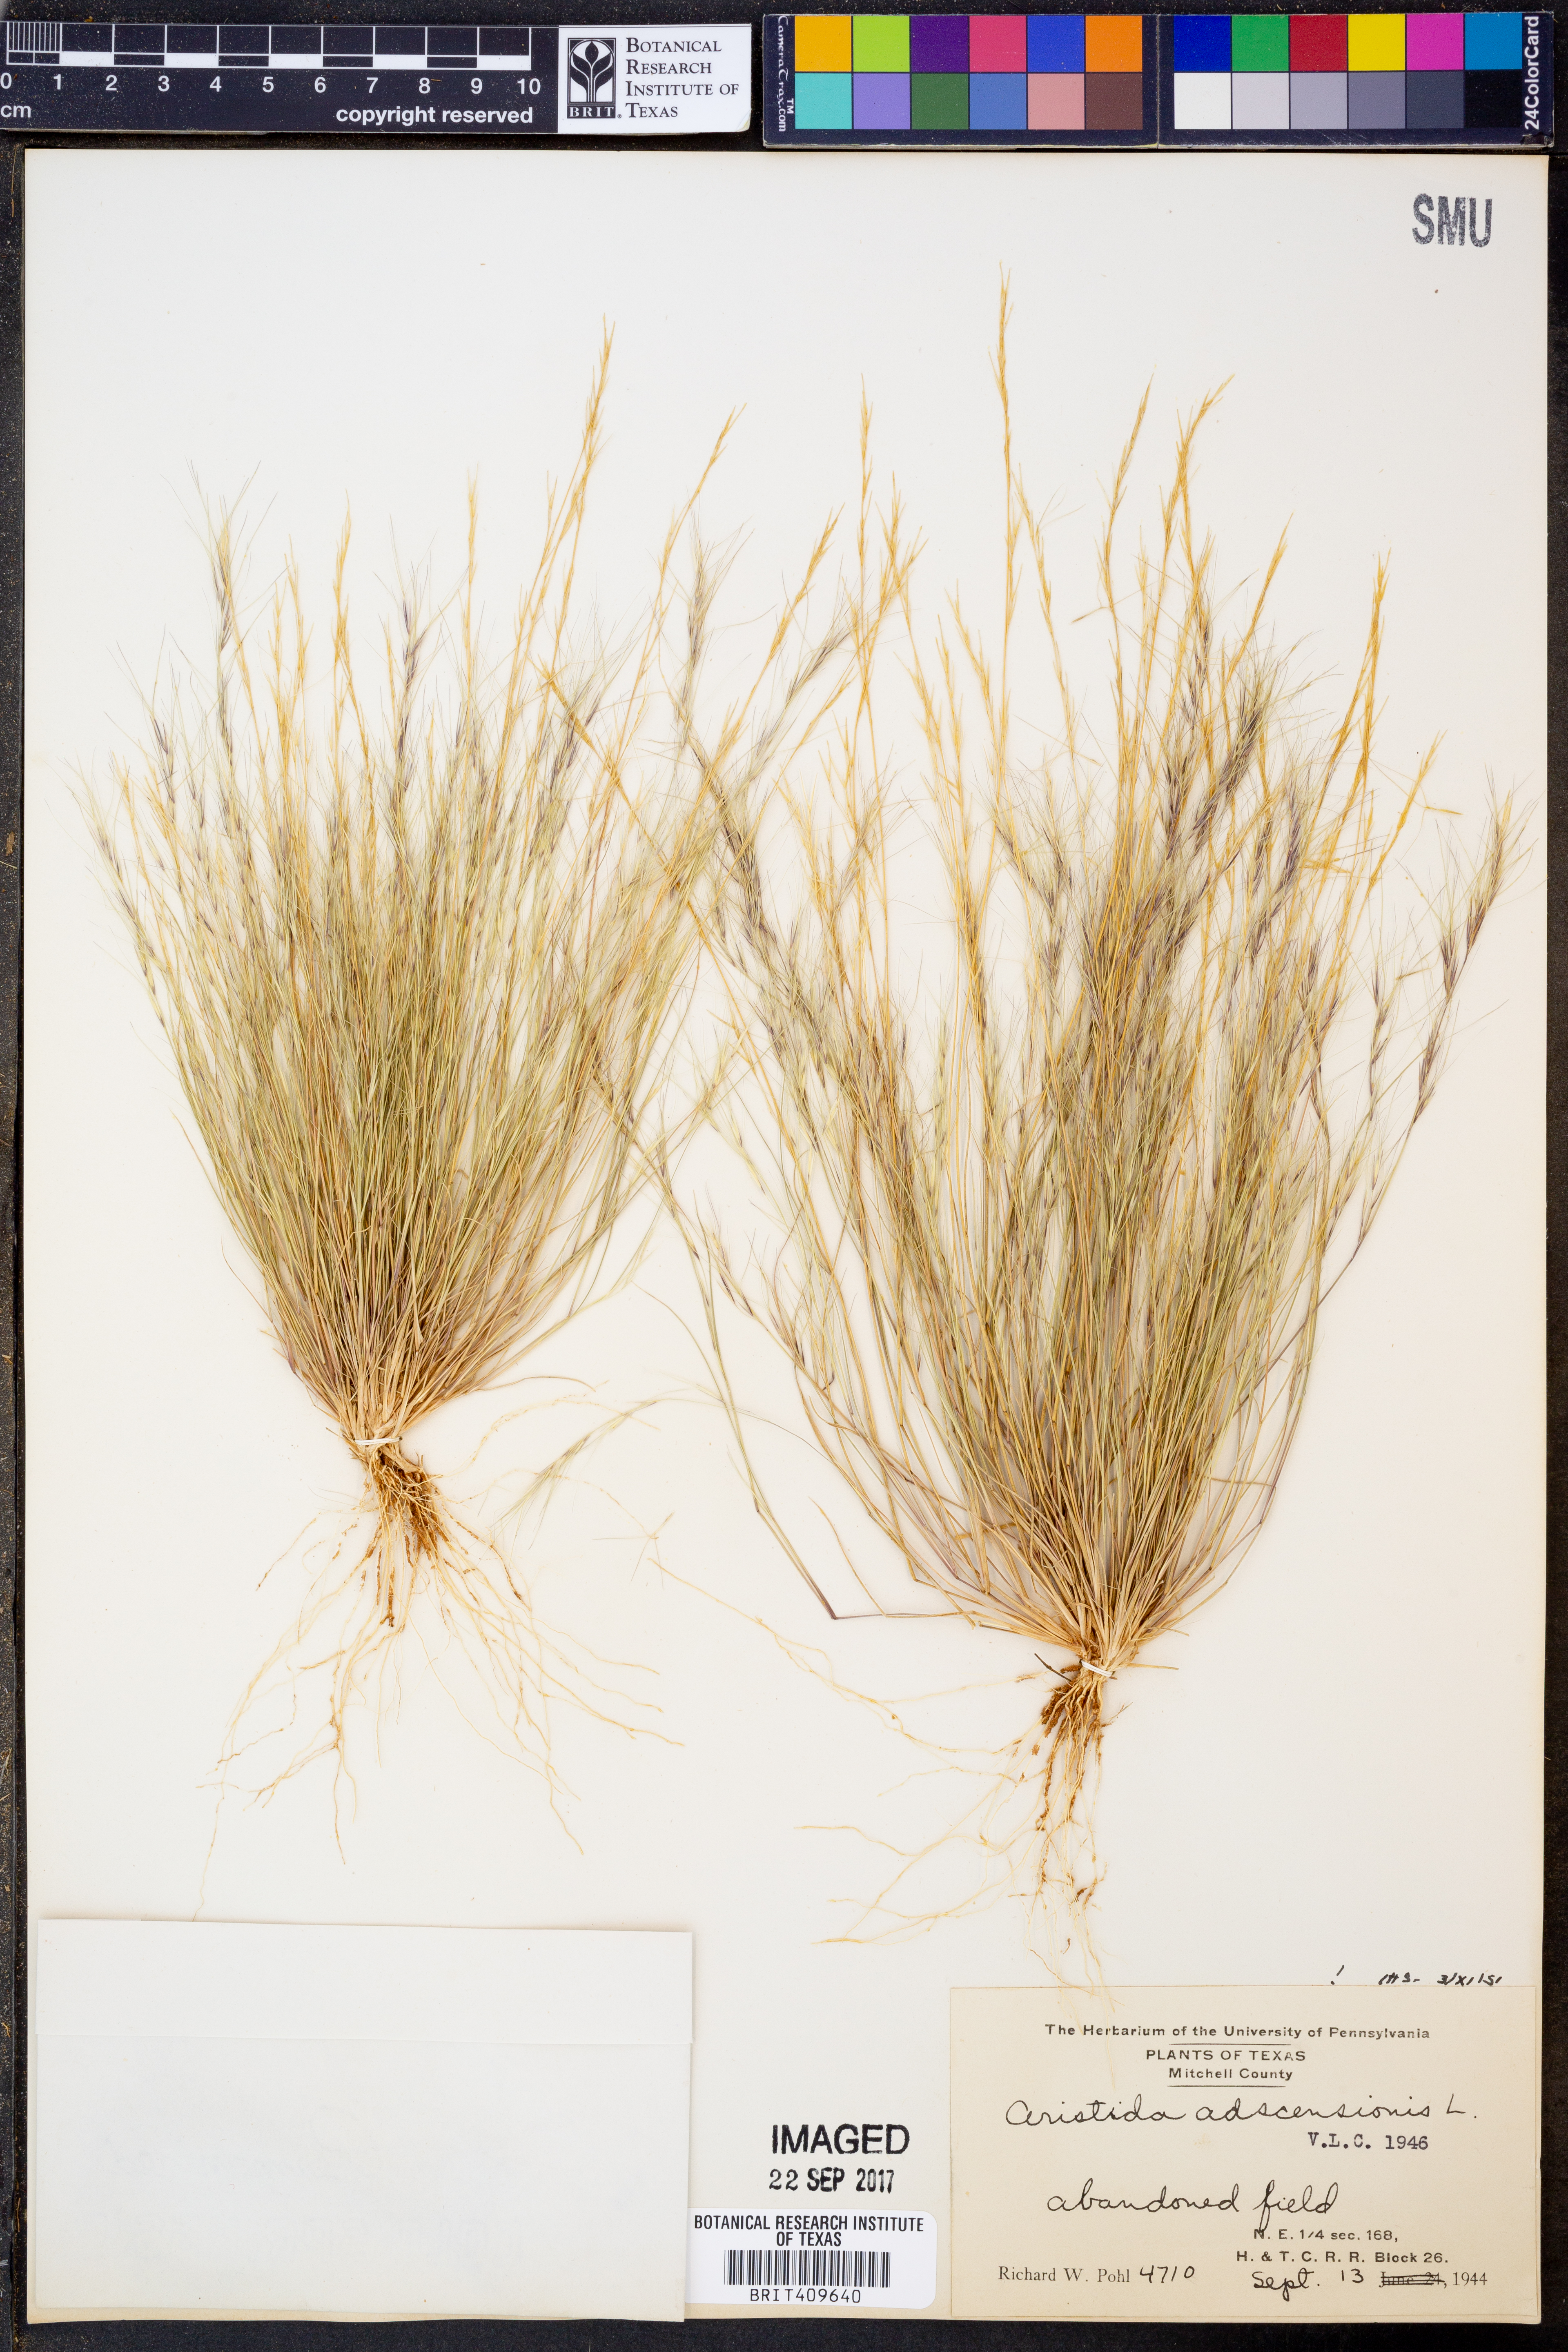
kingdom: Plantae
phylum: Tracheophyta
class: Liliopsida
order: Poales
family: Poaceae
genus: Aristida
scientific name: Aristida adscensionis
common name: Sixweeks threeawn
